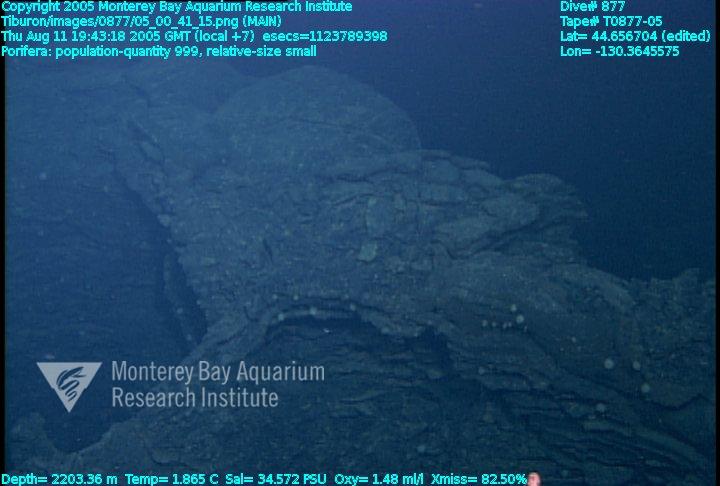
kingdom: Animalia
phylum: Porifera
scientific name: Porifera
